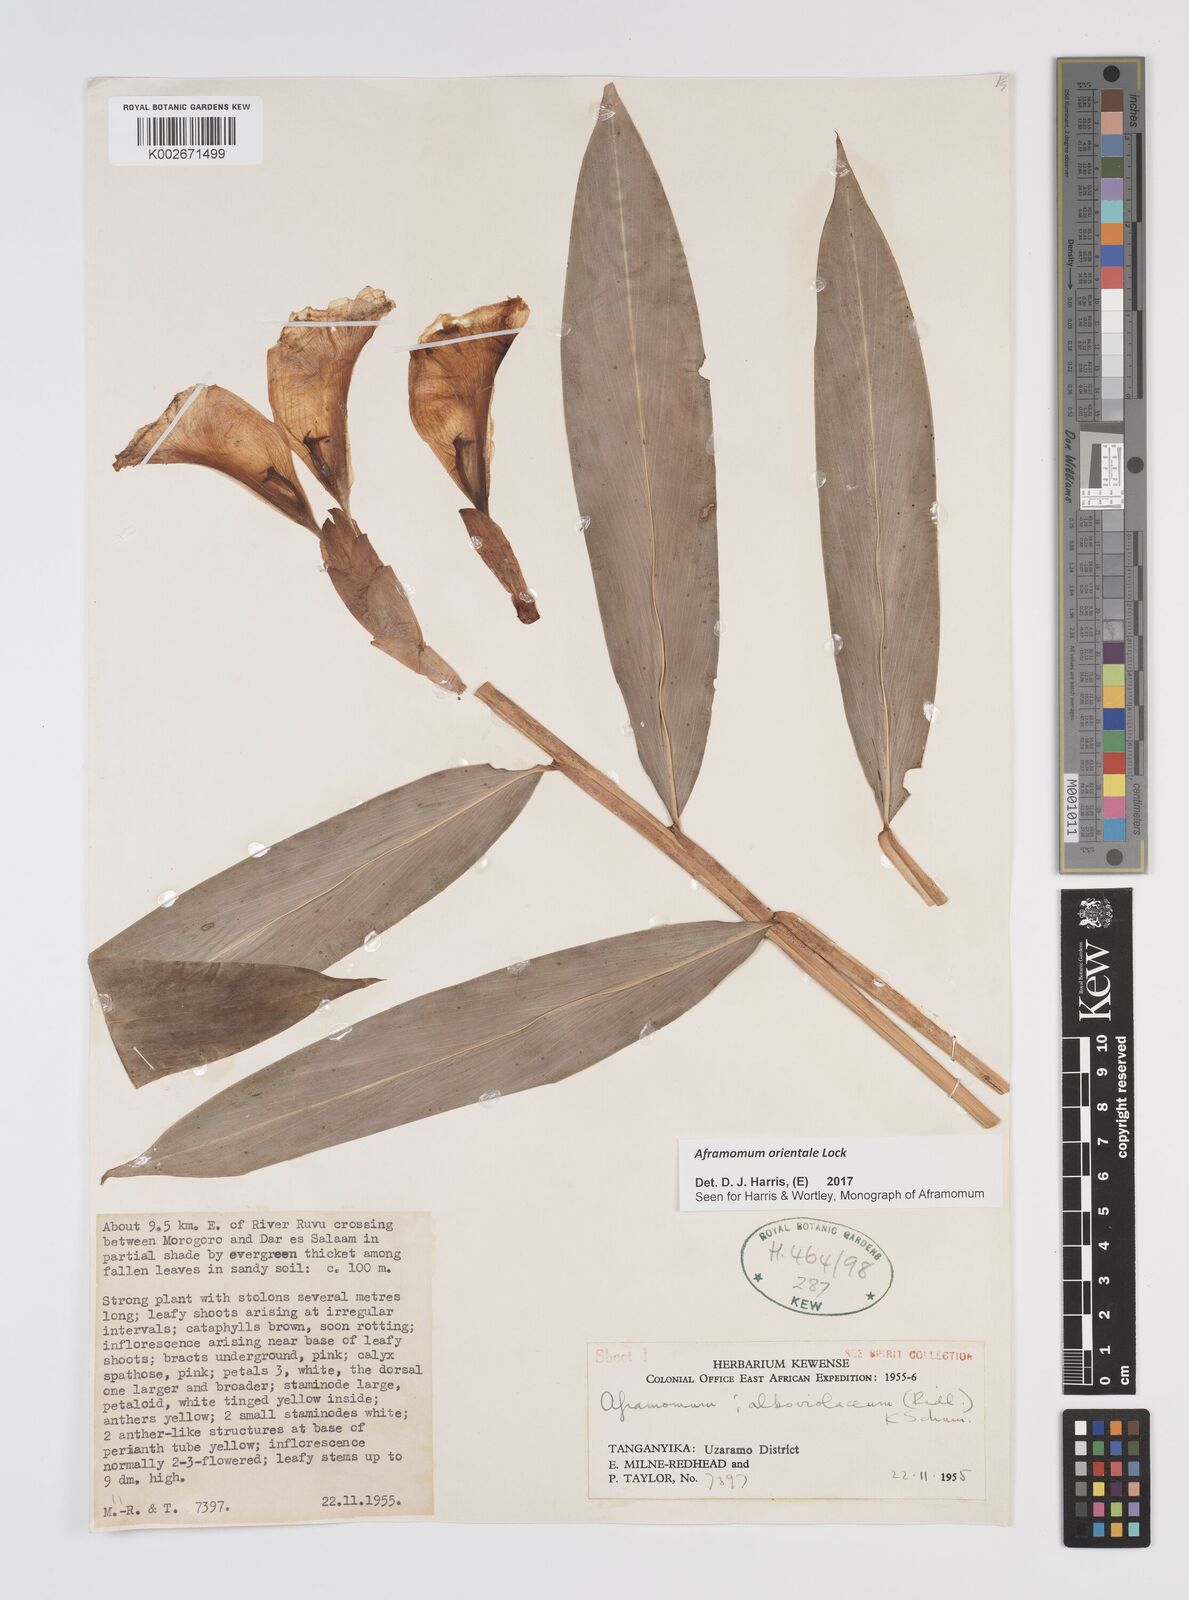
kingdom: Plantae
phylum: Tracheophyta
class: Liliopsida
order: Zingiberales
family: Zingiberaceae
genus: Aframomum
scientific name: Aframomum orientale
